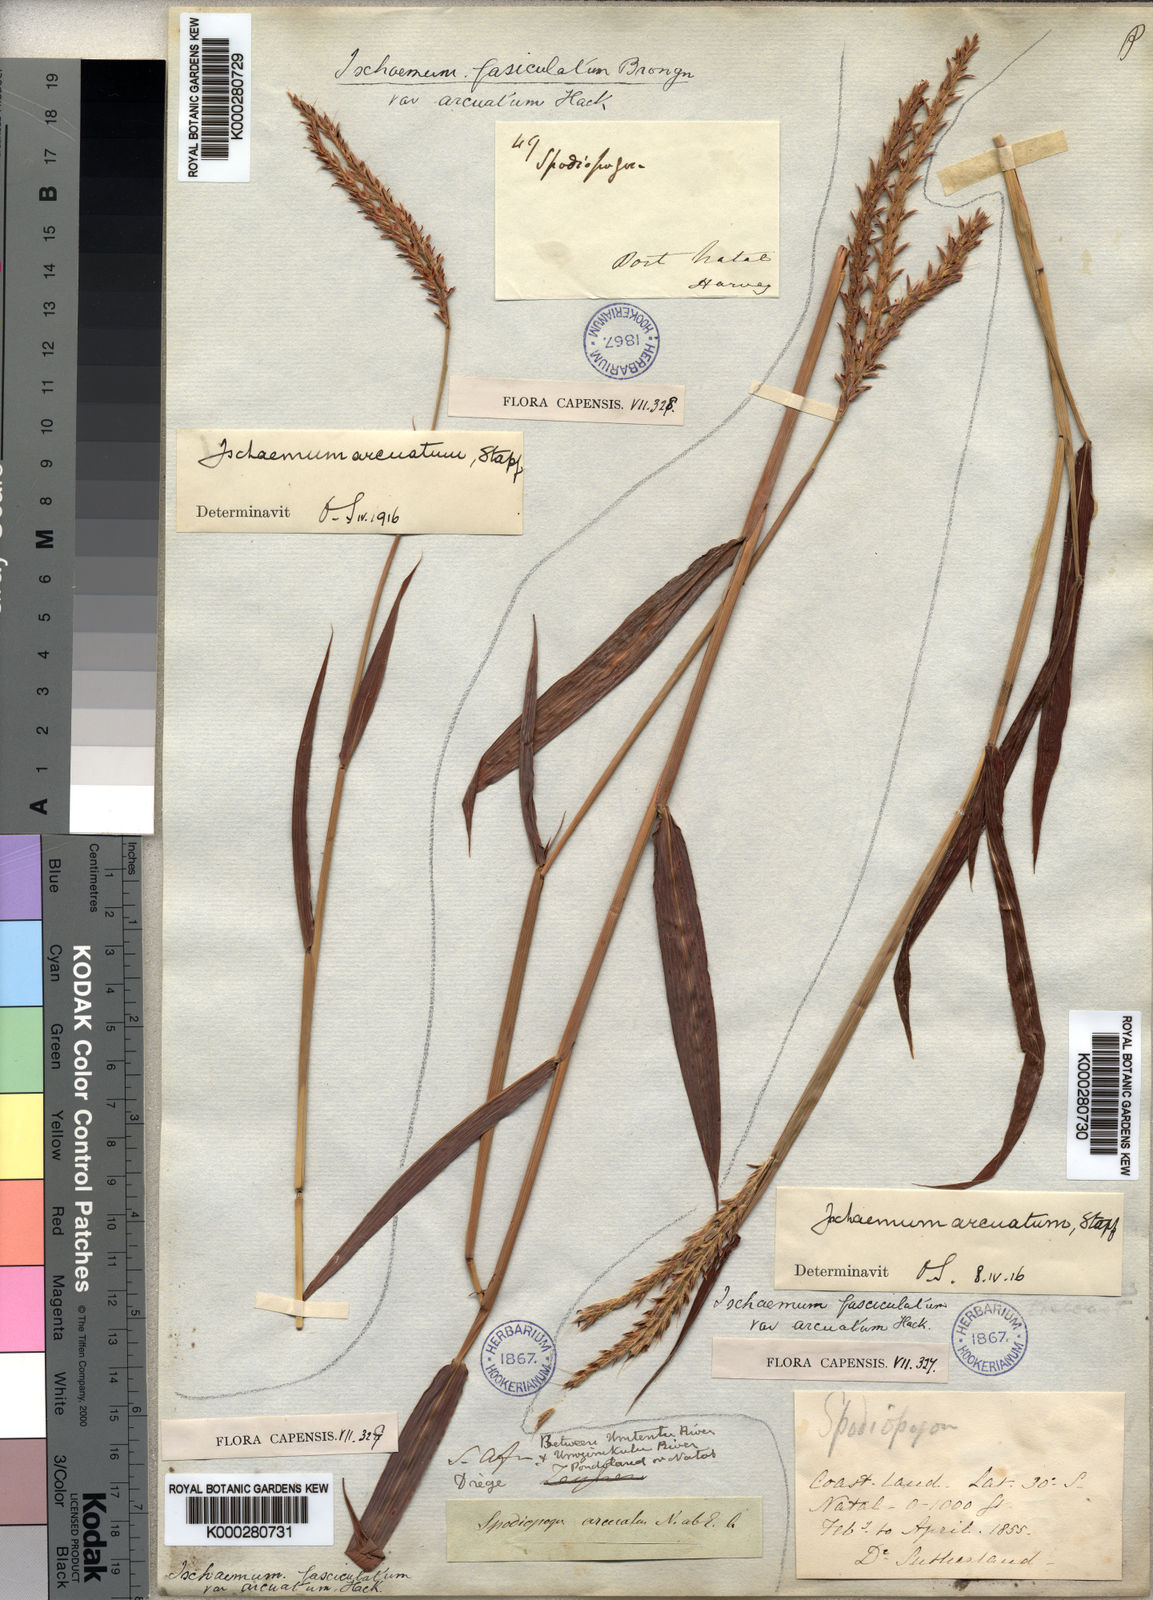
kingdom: Plantae
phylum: Tracheophyta
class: Liliopsida
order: Poales
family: Poaceae
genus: Ischaemum
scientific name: Ischaemum polystachyum
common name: Paddle grass
